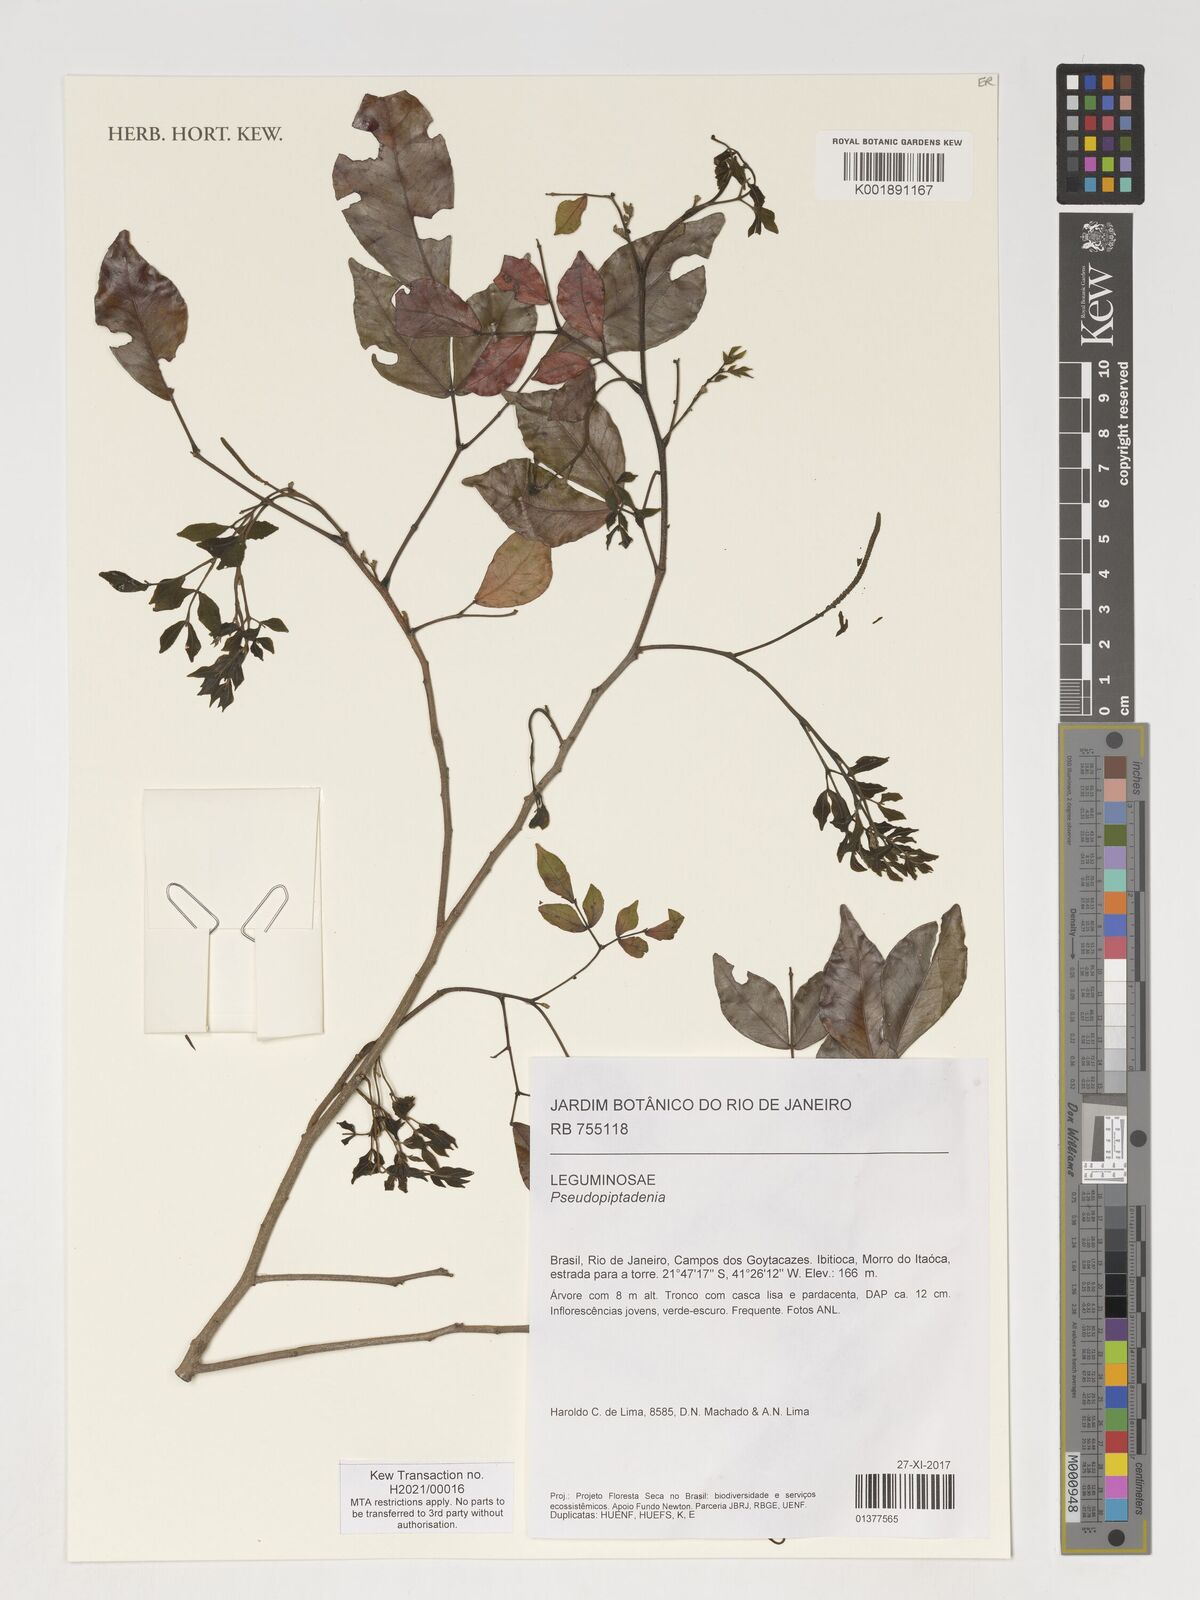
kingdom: Plantae
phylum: Tracheophyta
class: Magnoliopsida
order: Fabales
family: Fabaceae
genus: Pseudopiptadenia
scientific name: Pseudopiptadenia
